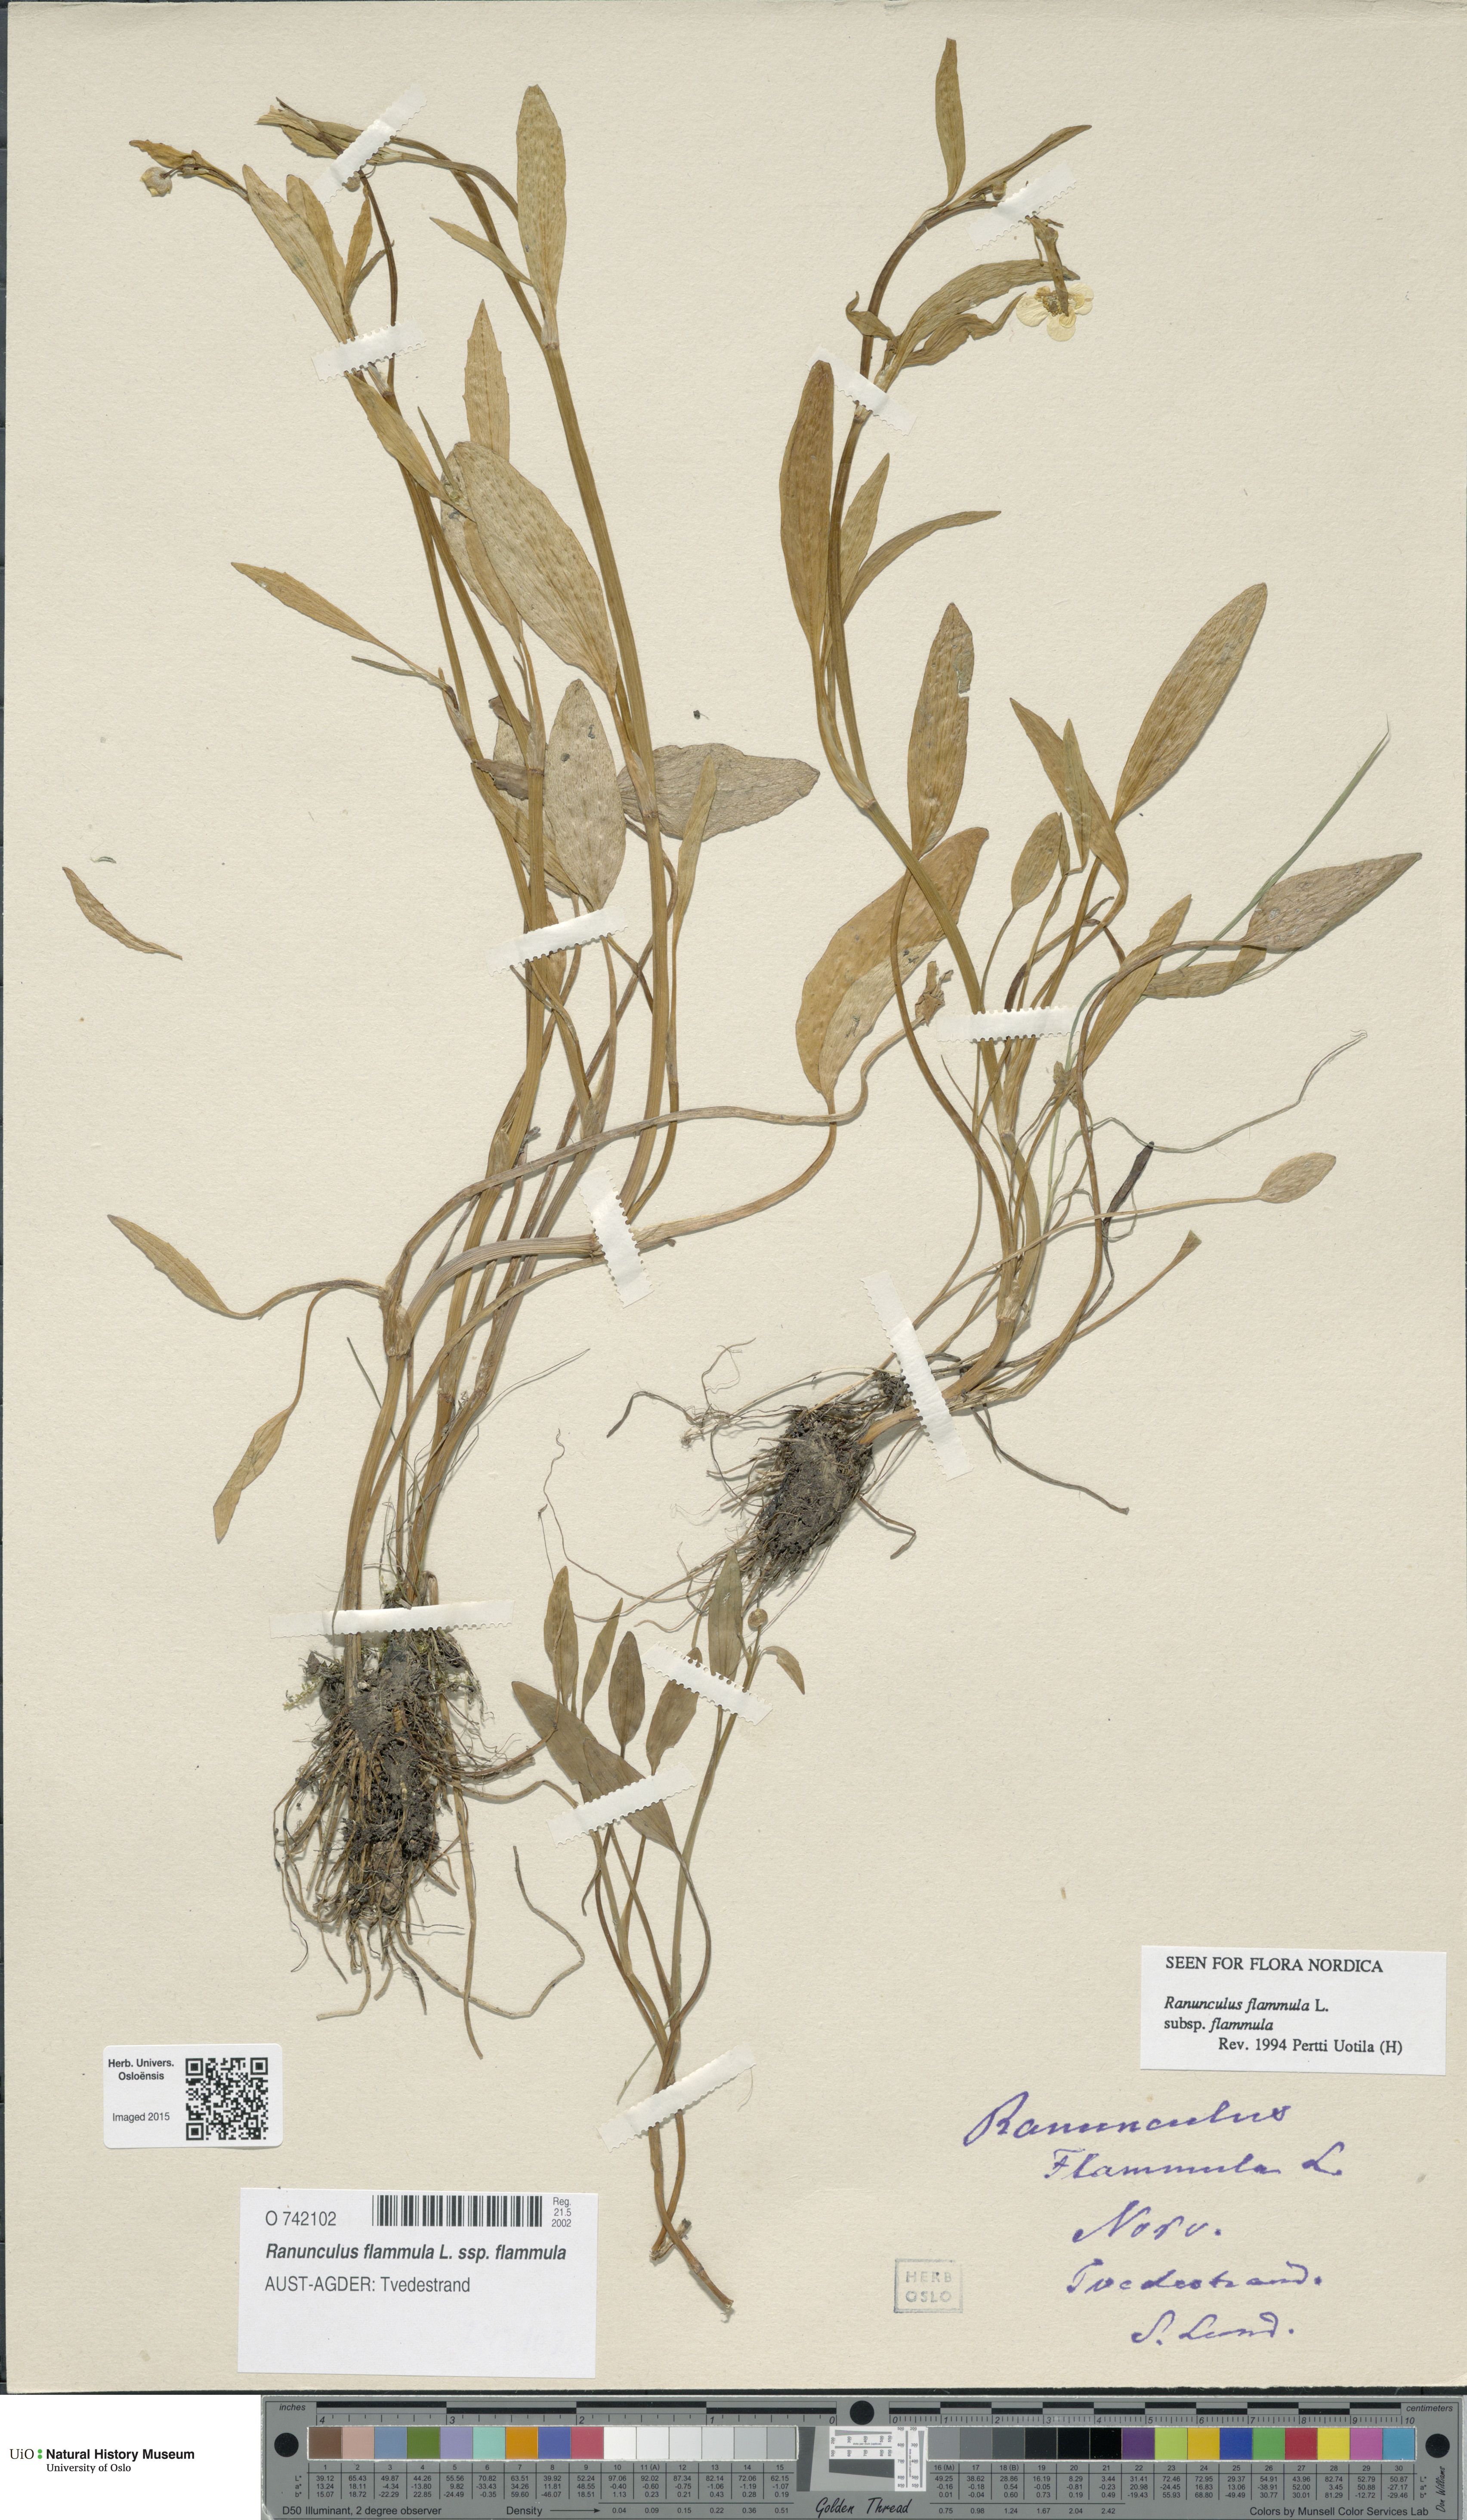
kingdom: Plantae
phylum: Tracheophyta
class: Magnoliopsida
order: Ranunculales
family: Ranunculaceae
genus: Ranunculus
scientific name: Ranunculus flammula
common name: Lesser spearwort
